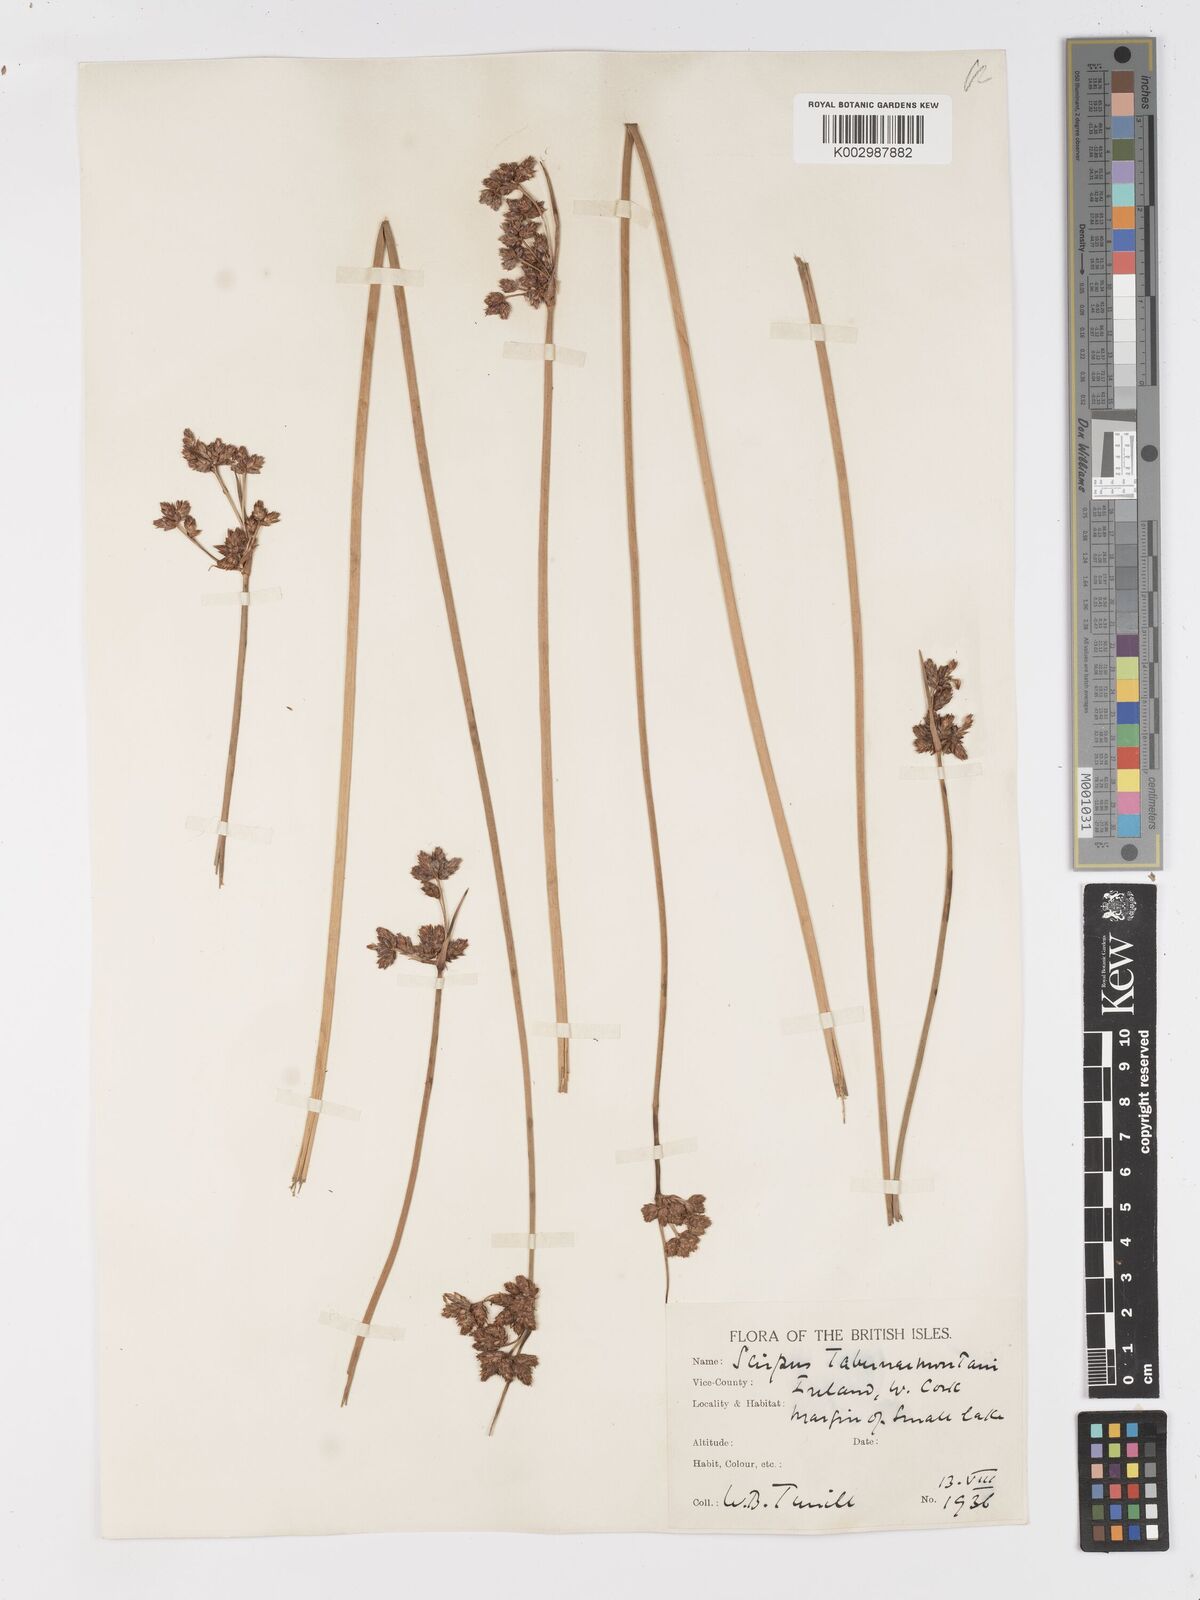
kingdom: Plantae
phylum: Tracheophyta
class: Liliopsida
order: Poales
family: Cyperaceae
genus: Schoenoplectus
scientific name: Schoenoplectus tabernaemontani
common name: Grey club-rush
